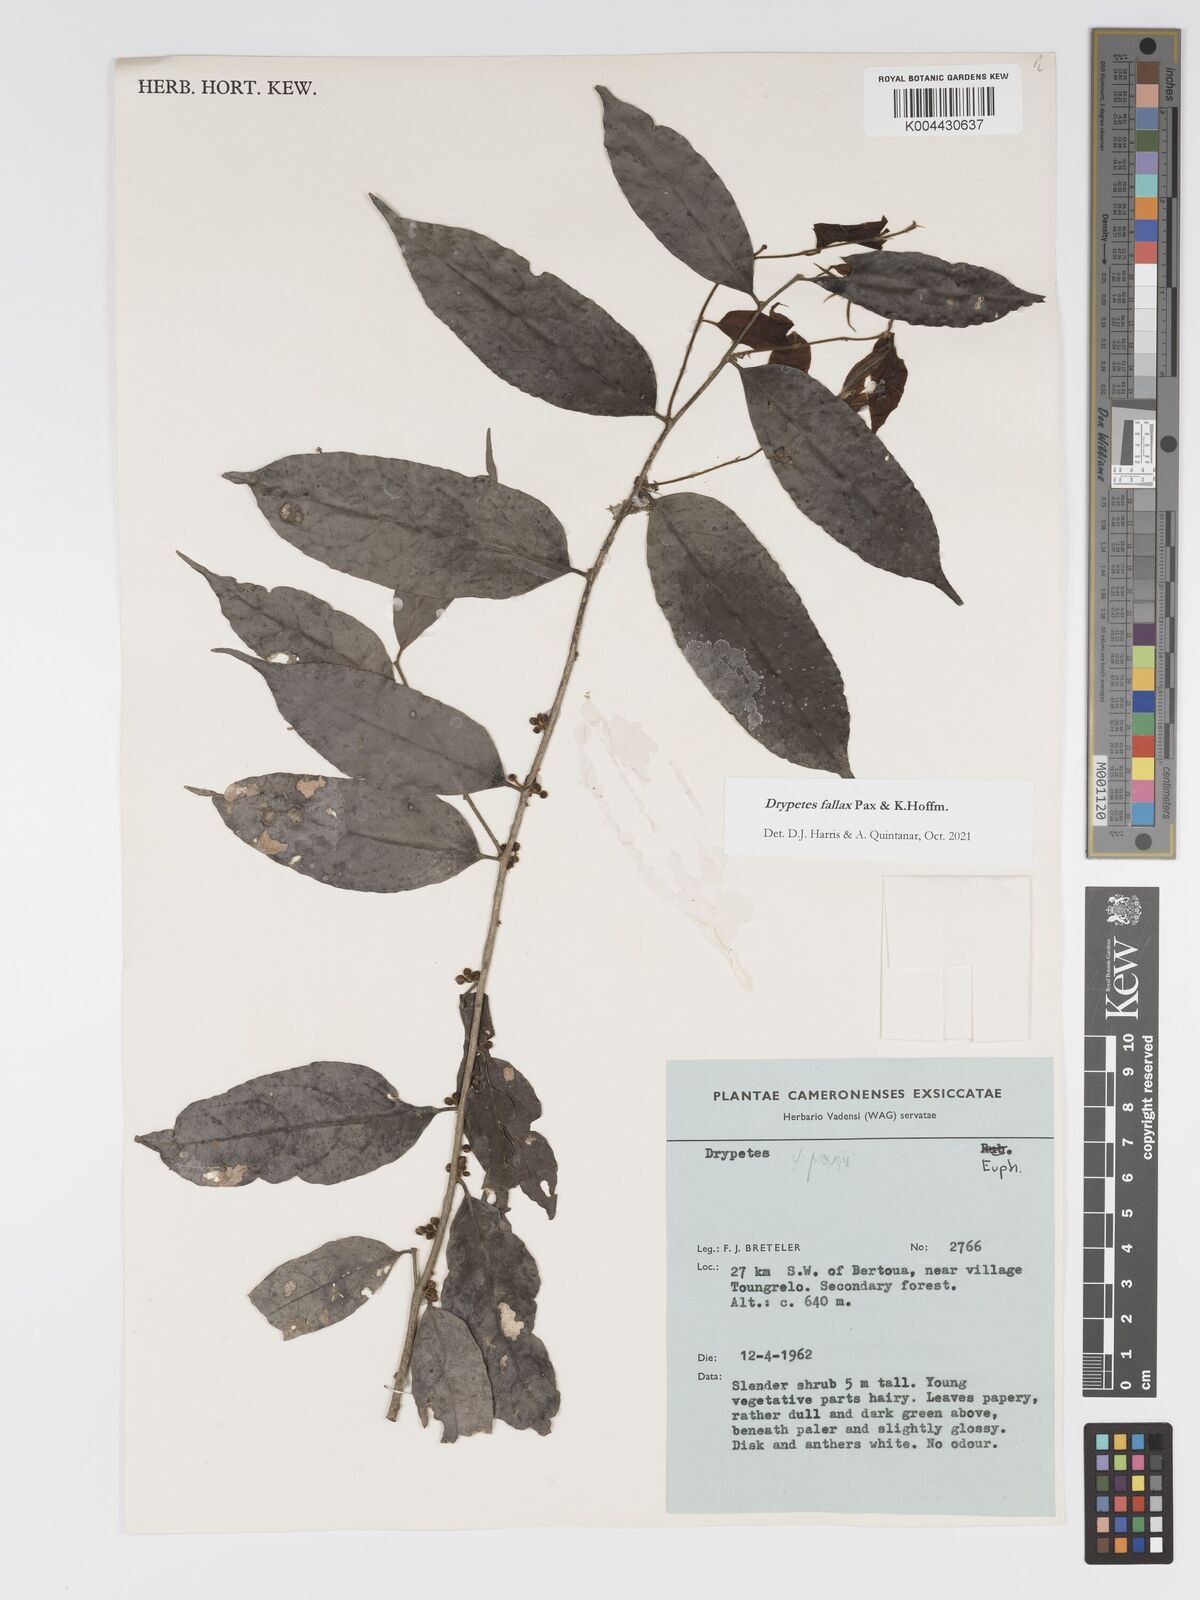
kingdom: Plantae
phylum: Tracheophyta
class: Magnoliopsida
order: Malpighiales
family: Putranjivaceae
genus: Drypetes
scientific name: Drypetes fallax
